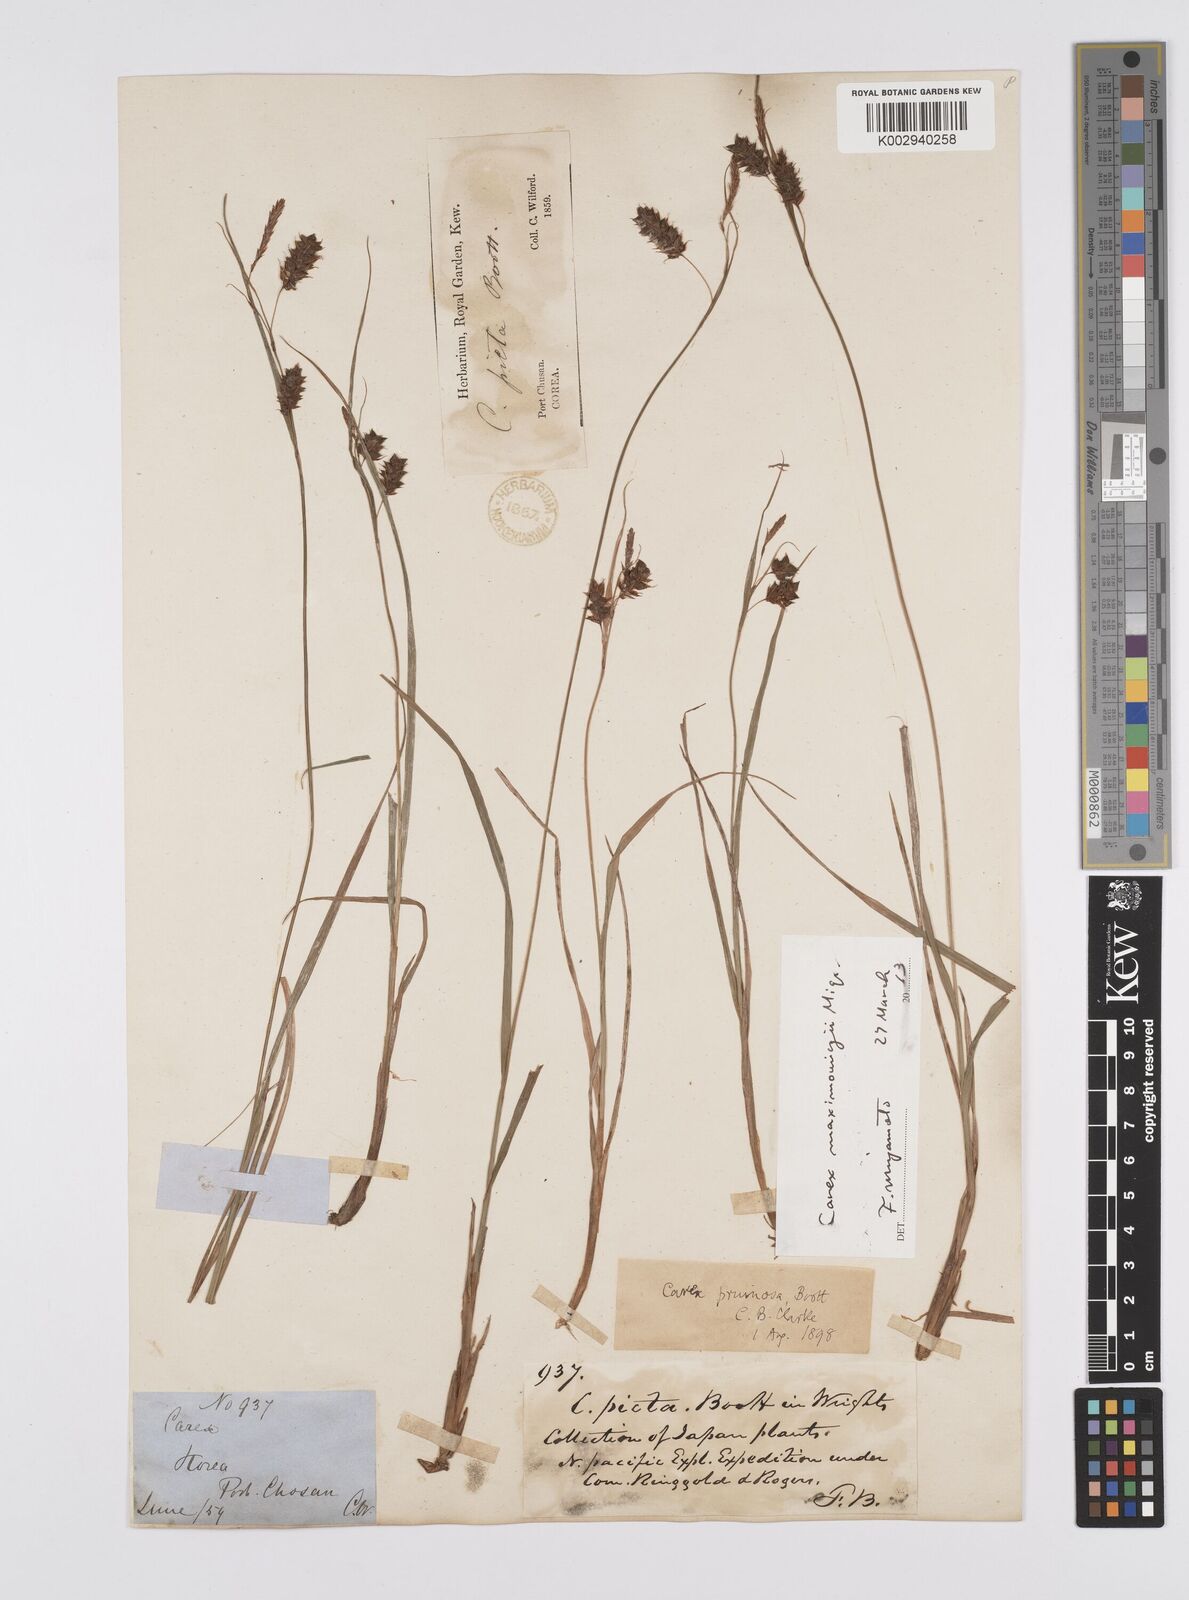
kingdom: Plantae
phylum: Tracheophyta
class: Liliopsida
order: Poales
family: Cyperaceae
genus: Carex
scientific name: Carex pruinosa
